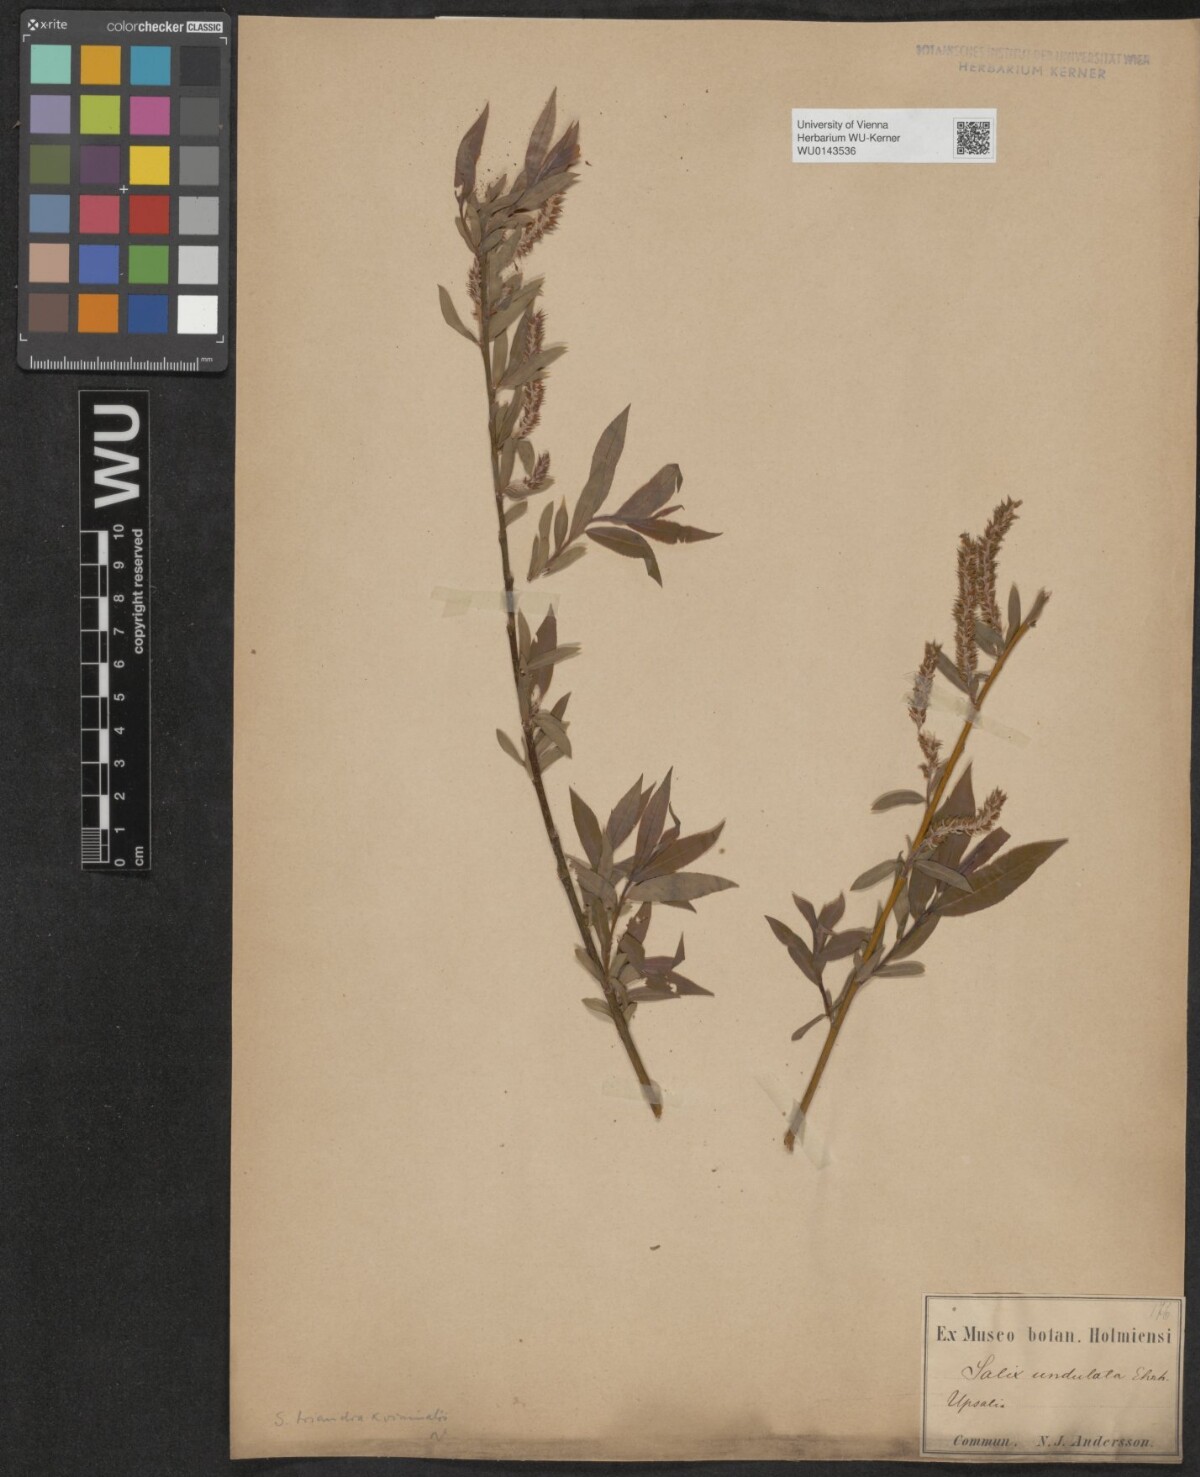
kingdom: Plantae
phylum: Tracheophyta
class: Magnoliopsida
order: Malpighiales
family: Salicaceae
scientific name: Salicaceae
